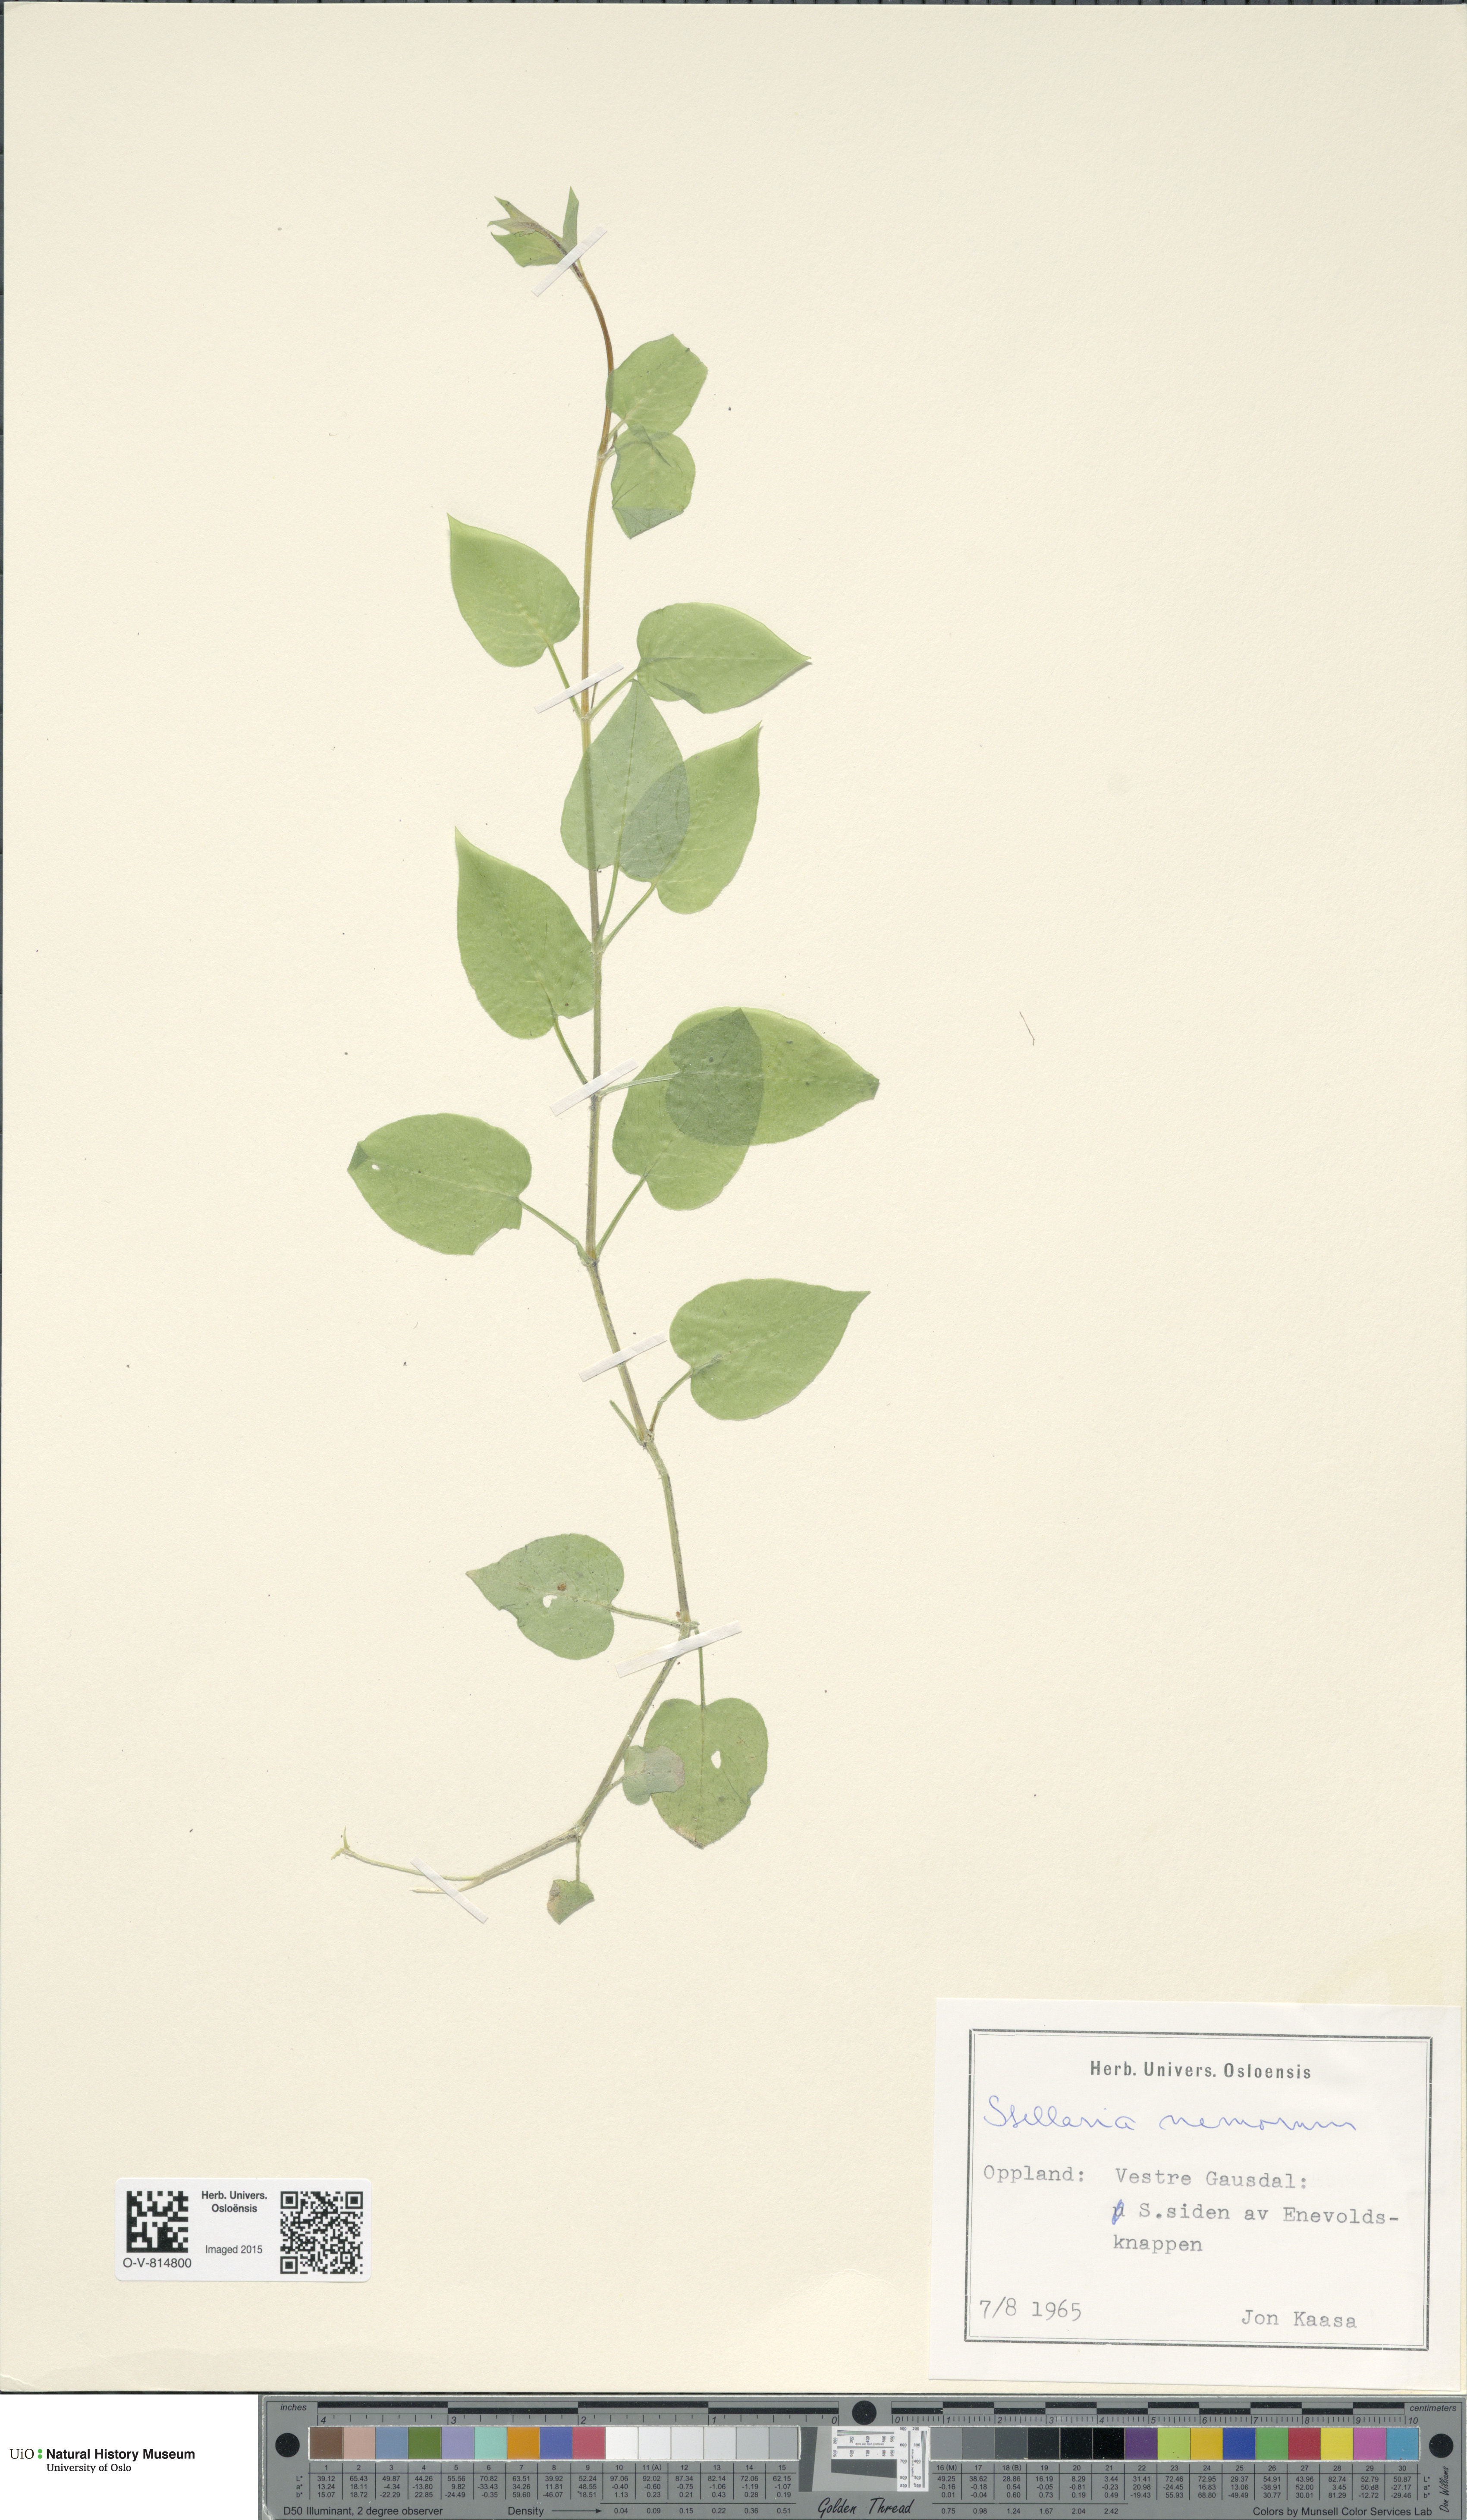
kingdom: Plantae
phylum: Tracheophyta
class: Magnoliopsida
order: Caryophyllales
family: Caryophyllaceae
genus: Stellaria
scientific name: Stellaria nemorum
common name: Wood stitchwort
